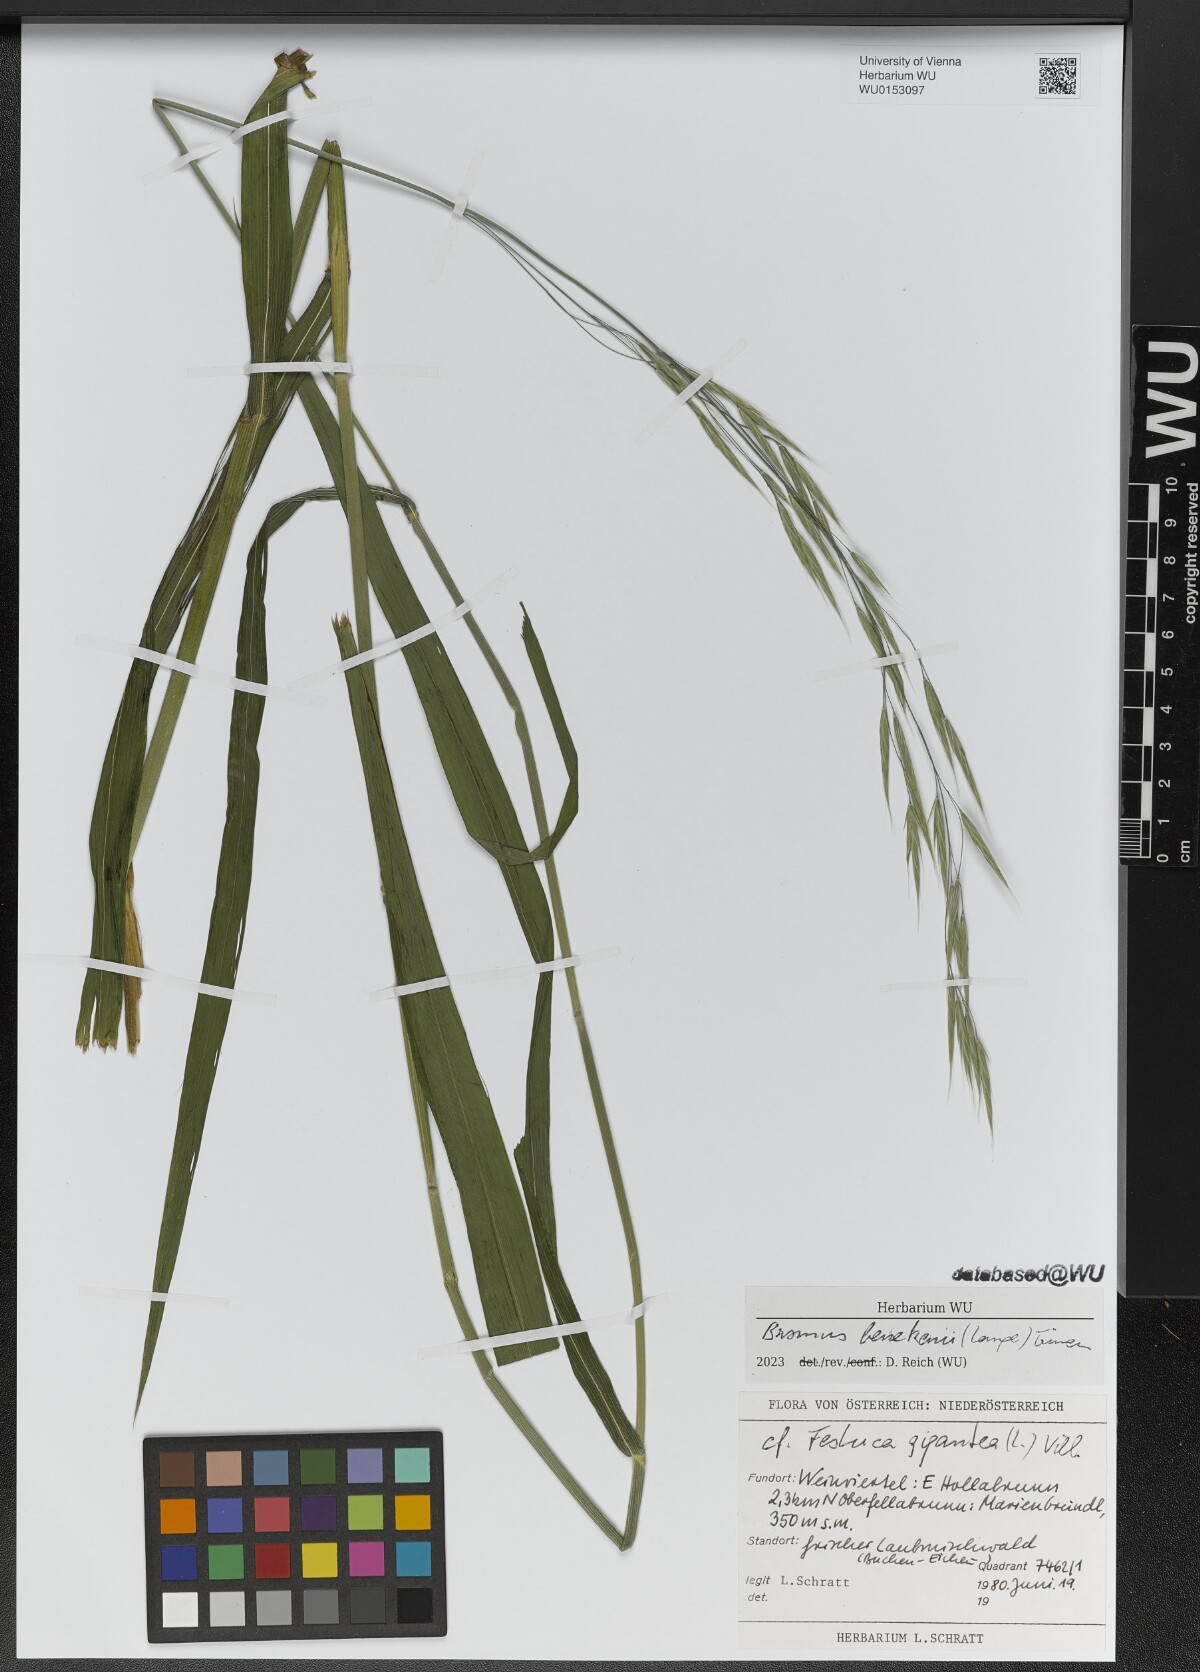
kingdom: Plantae
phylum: Tracheophyta
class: Liliopsida
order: Poales
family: Poaceae
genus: Bromus
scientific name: Bromus benekenii
